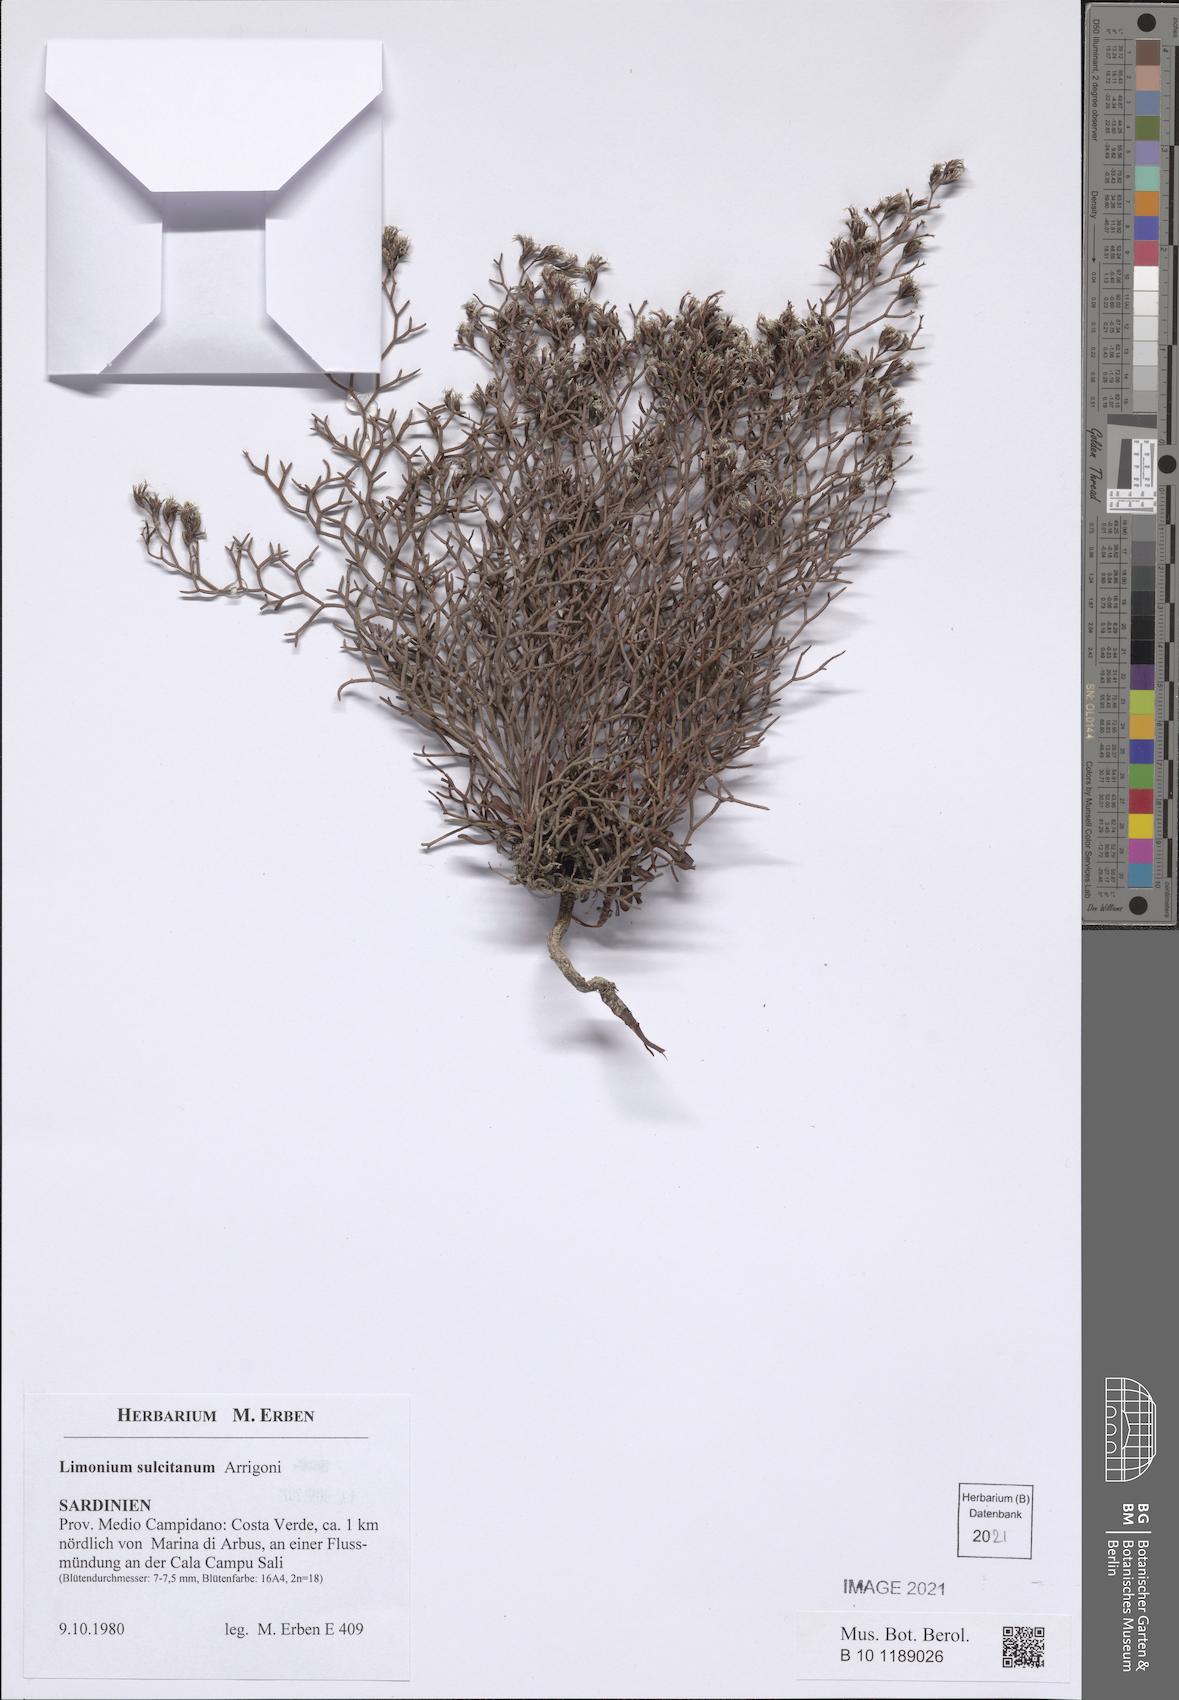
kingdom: Plantae
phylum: Tracheophyta
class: Magnoliopsida
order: Caryophyllales
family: Plumbaginaceae
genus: Limonium
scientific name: Limonium sulcitanum
